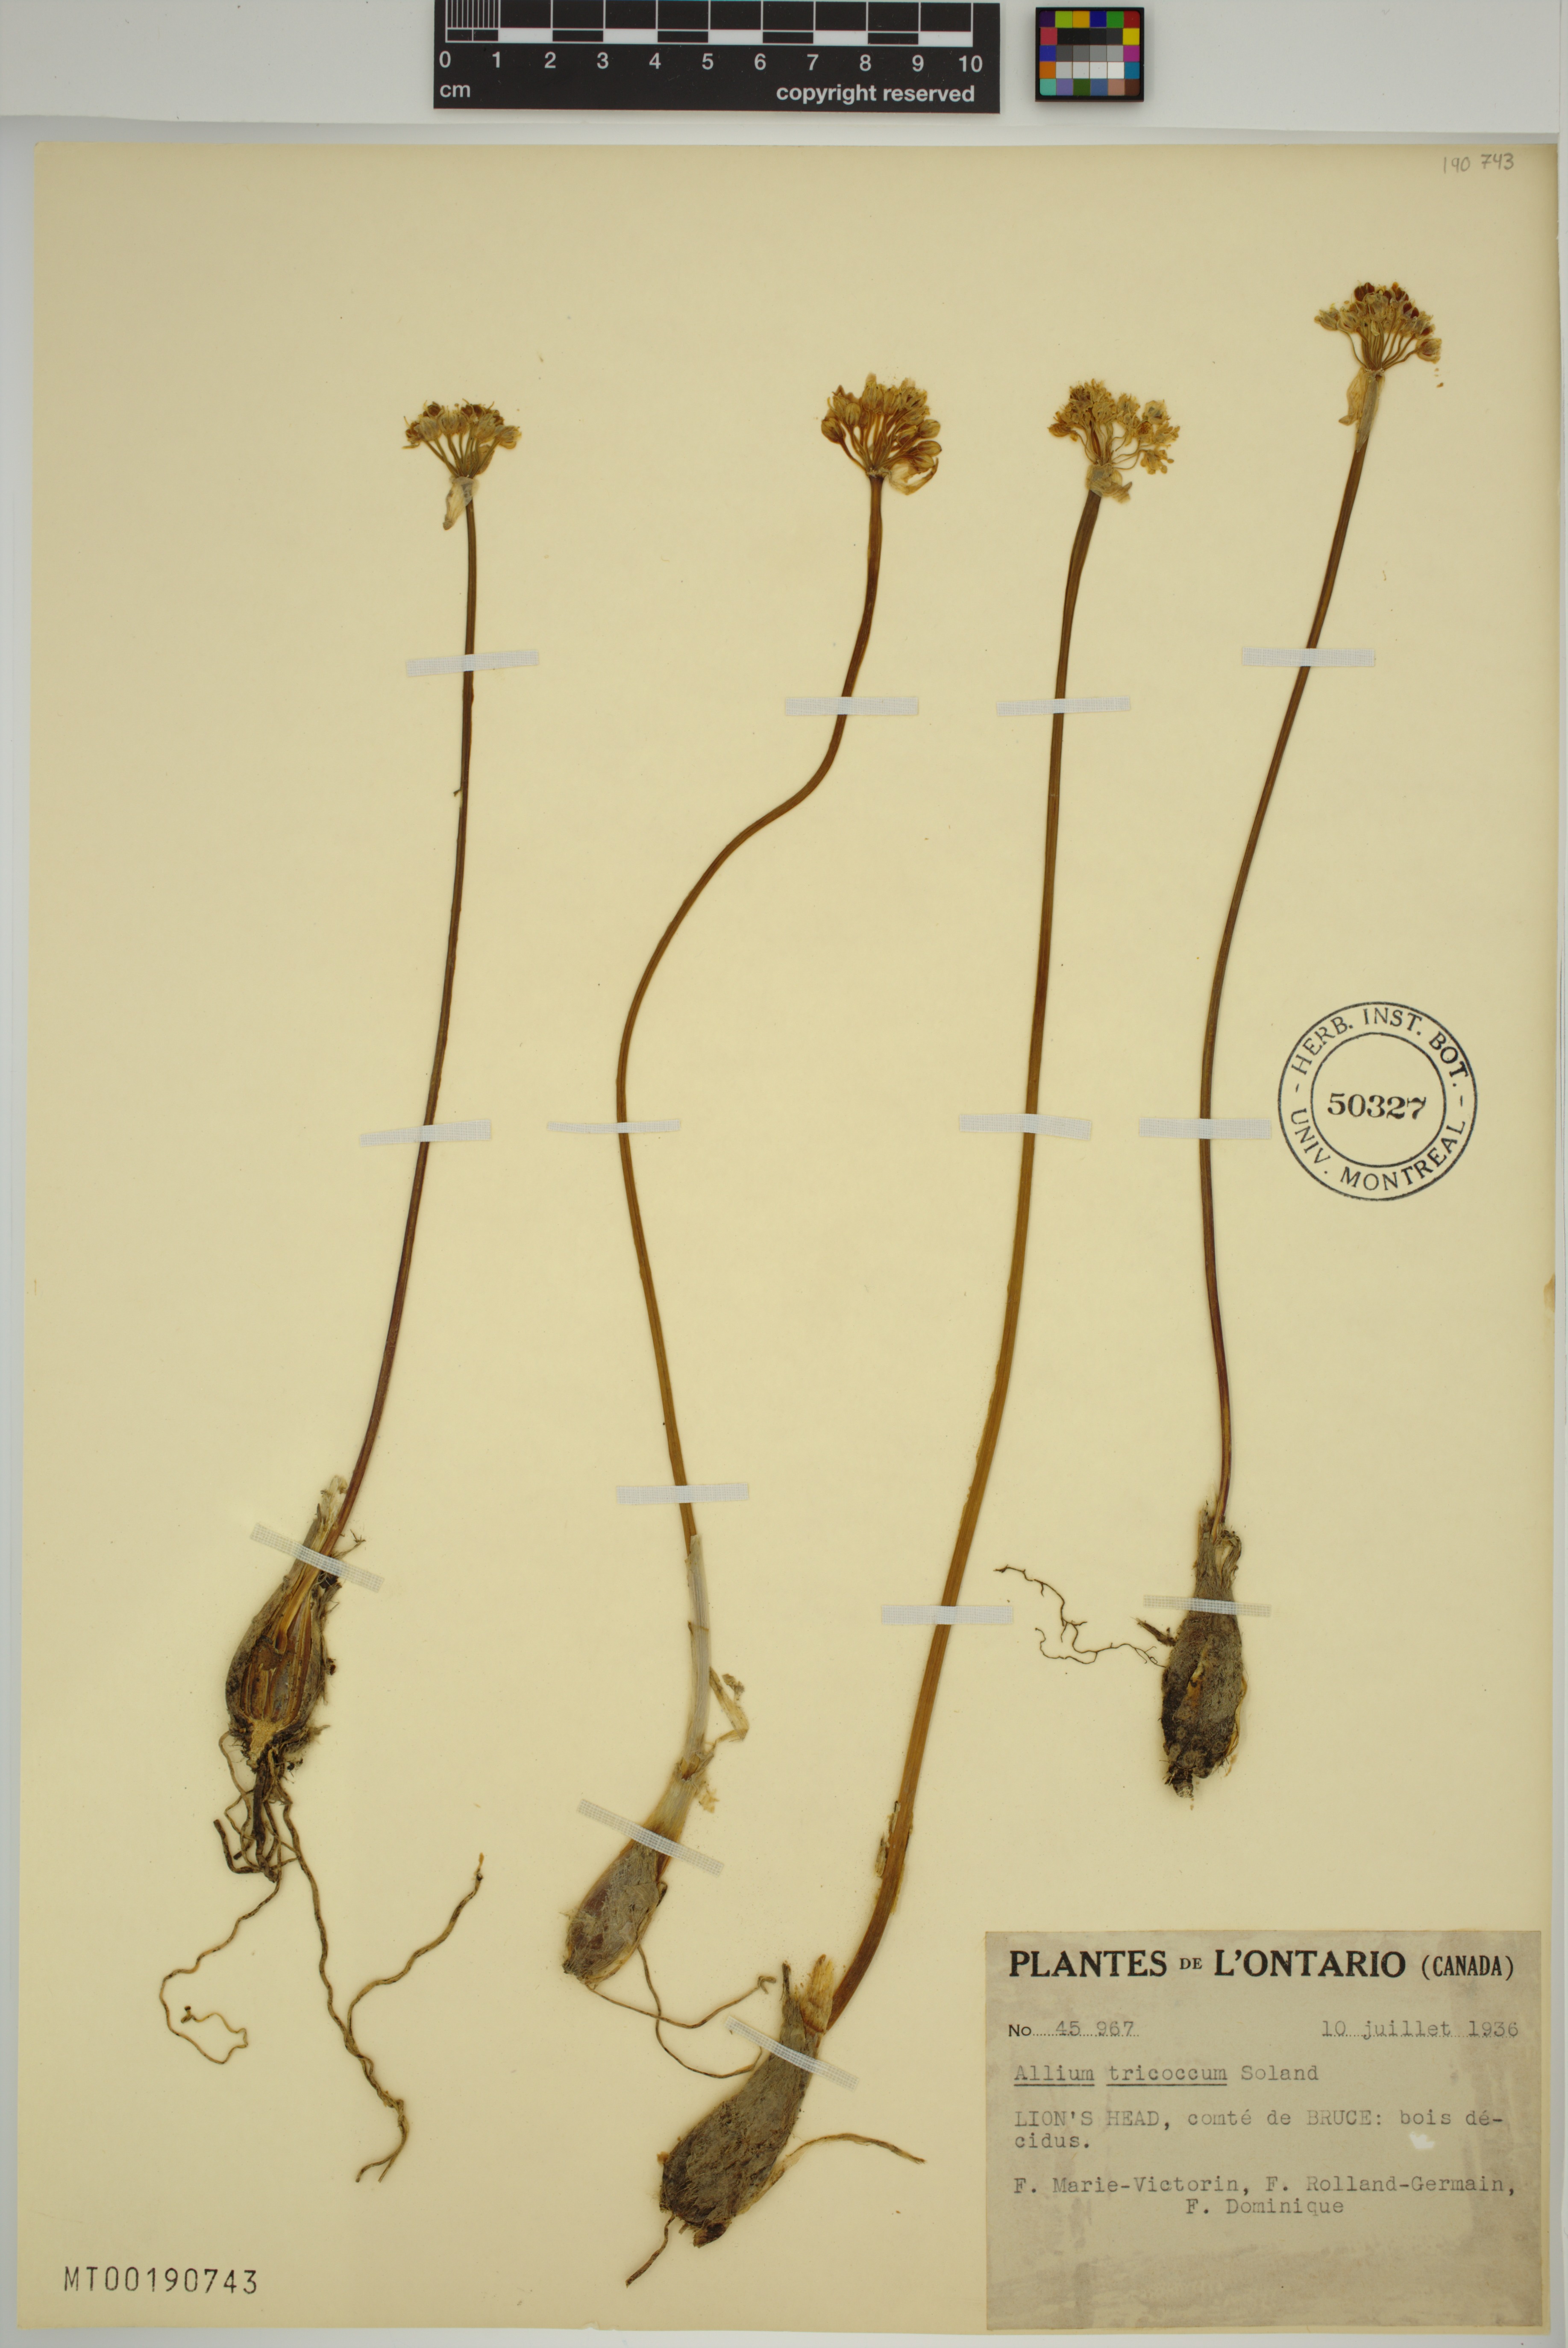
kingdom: Plantae
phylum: Tracheophyta
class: Liliopsida
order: Asparagales
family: Amaryllidaceae
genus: Allium
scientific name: Allium tricoccum
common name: Ramp
